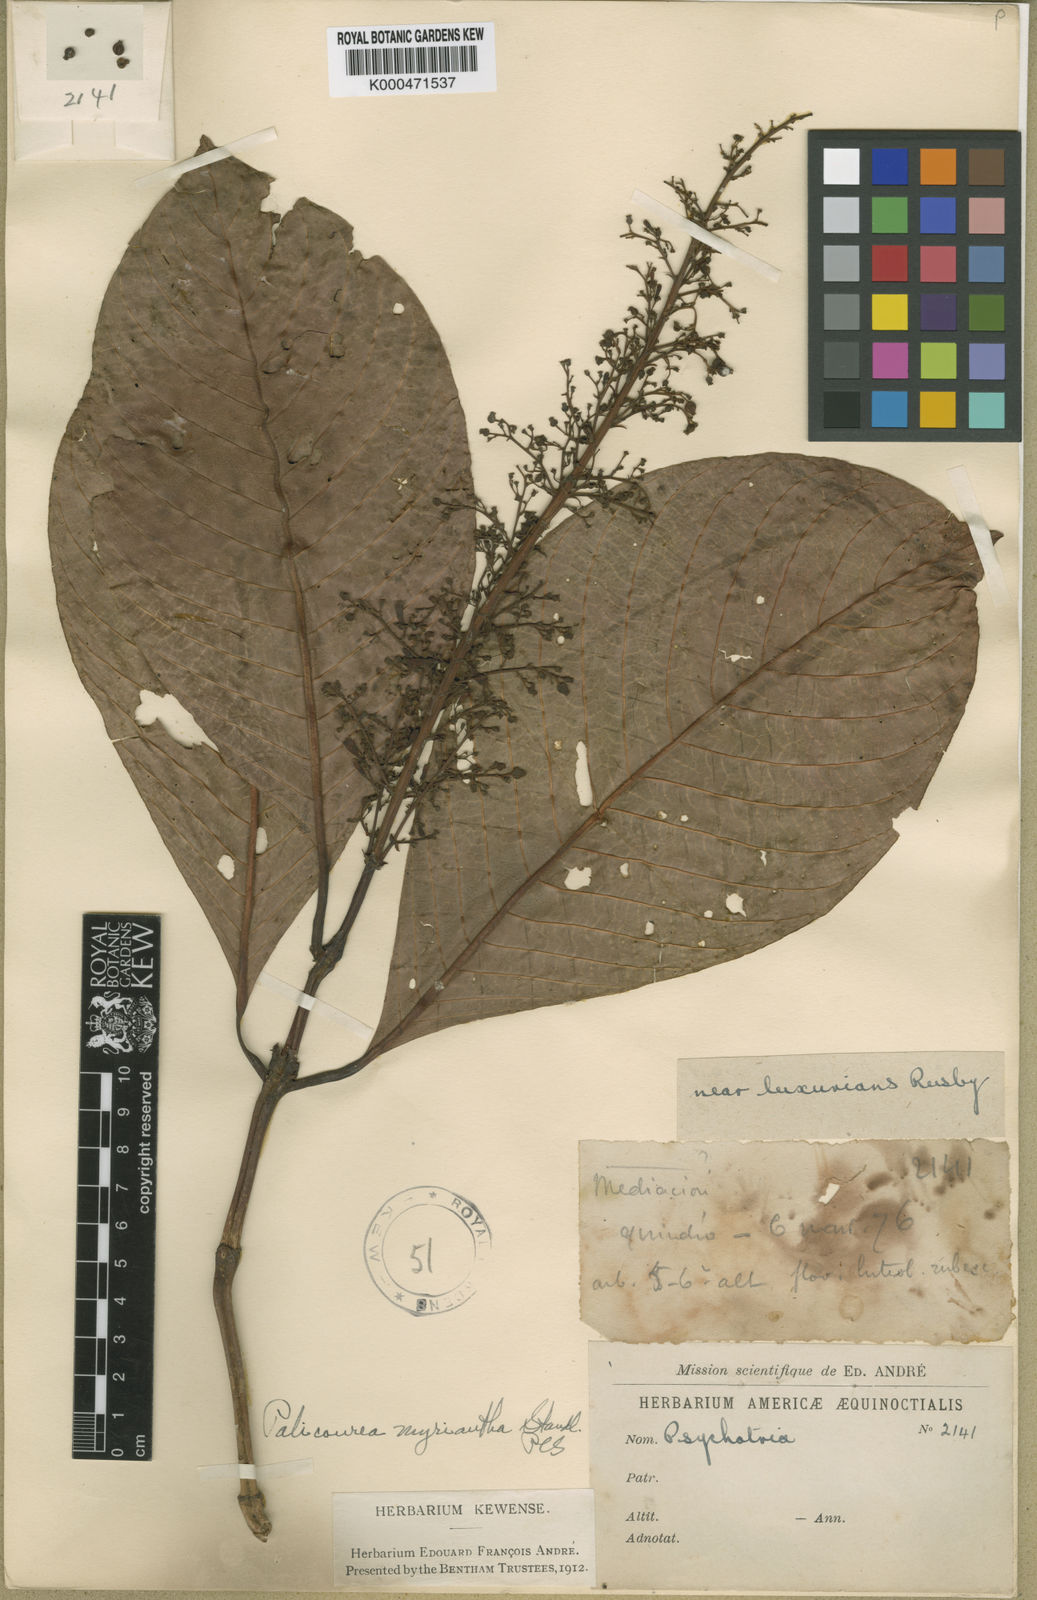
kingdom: Plantae
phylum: Tracheophyta
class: Magnoliopsida
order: Gentianales
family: Rubiaceae
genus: Palicourea
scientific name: Palicourea myriantha
